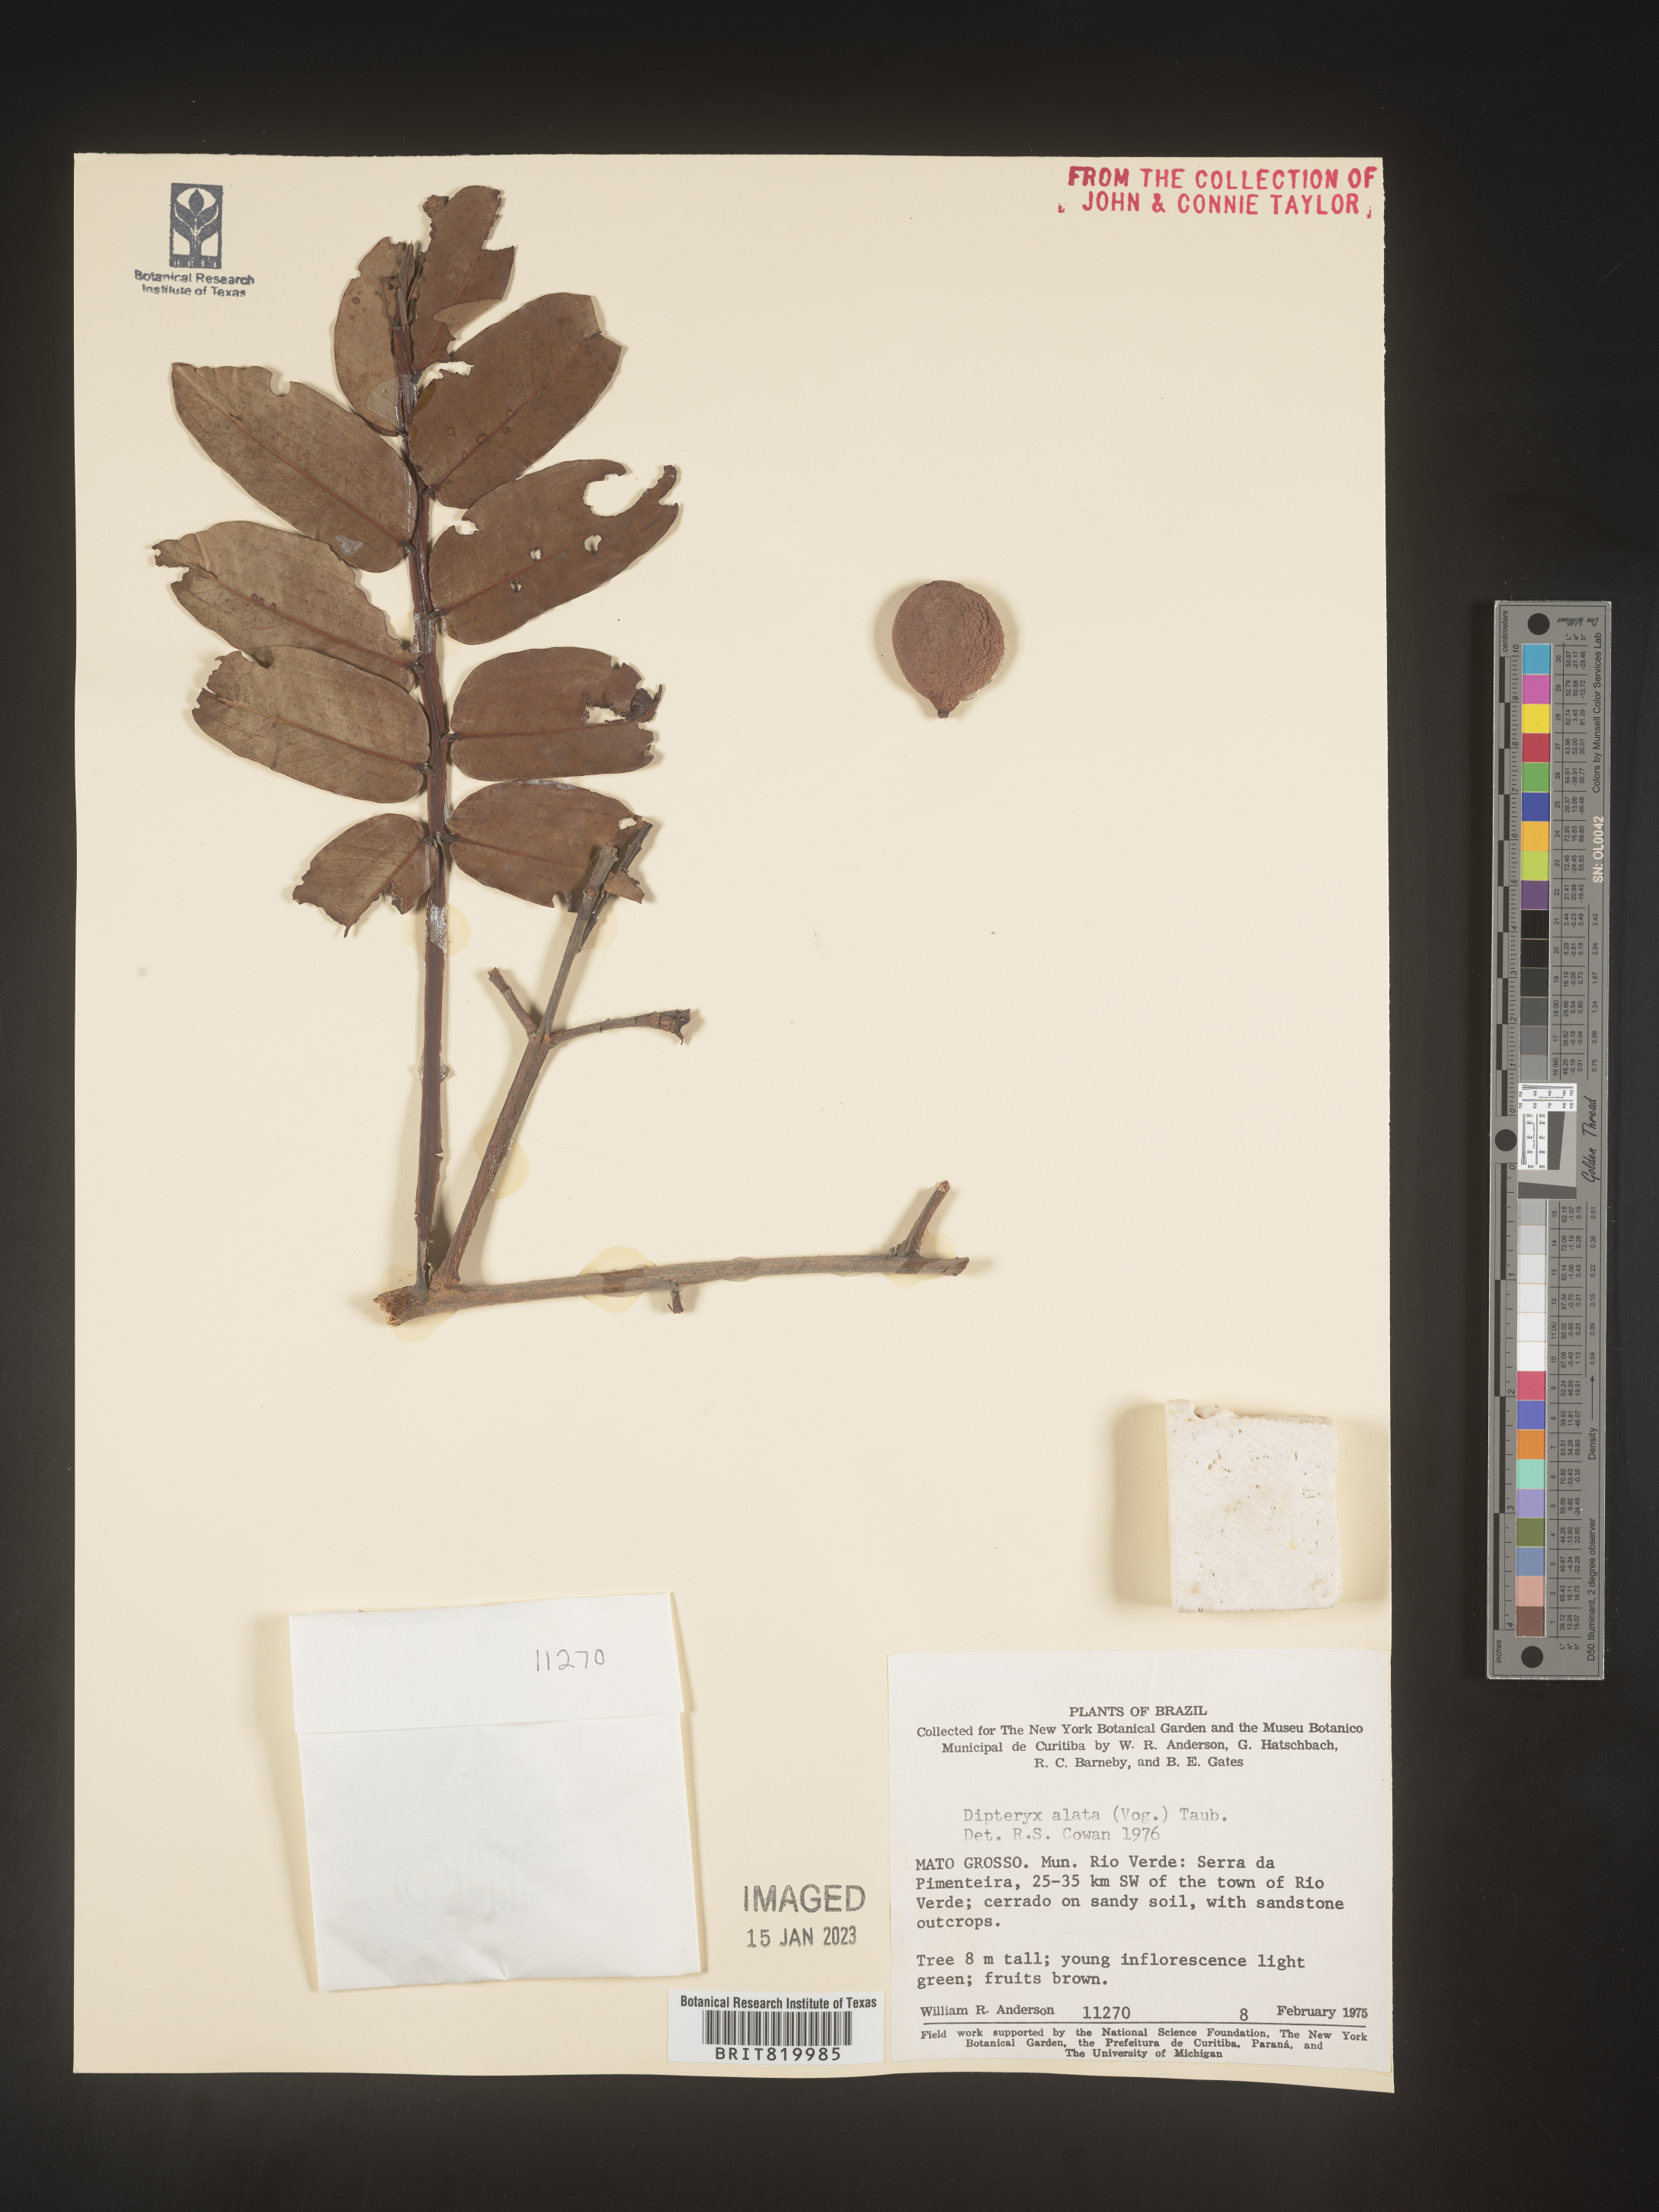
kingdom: Plantae
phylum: Tracheophyta
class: Magnoliopsida
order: Fabales
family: Fabaceae
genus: Dipteryx
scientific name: Dipteryx
